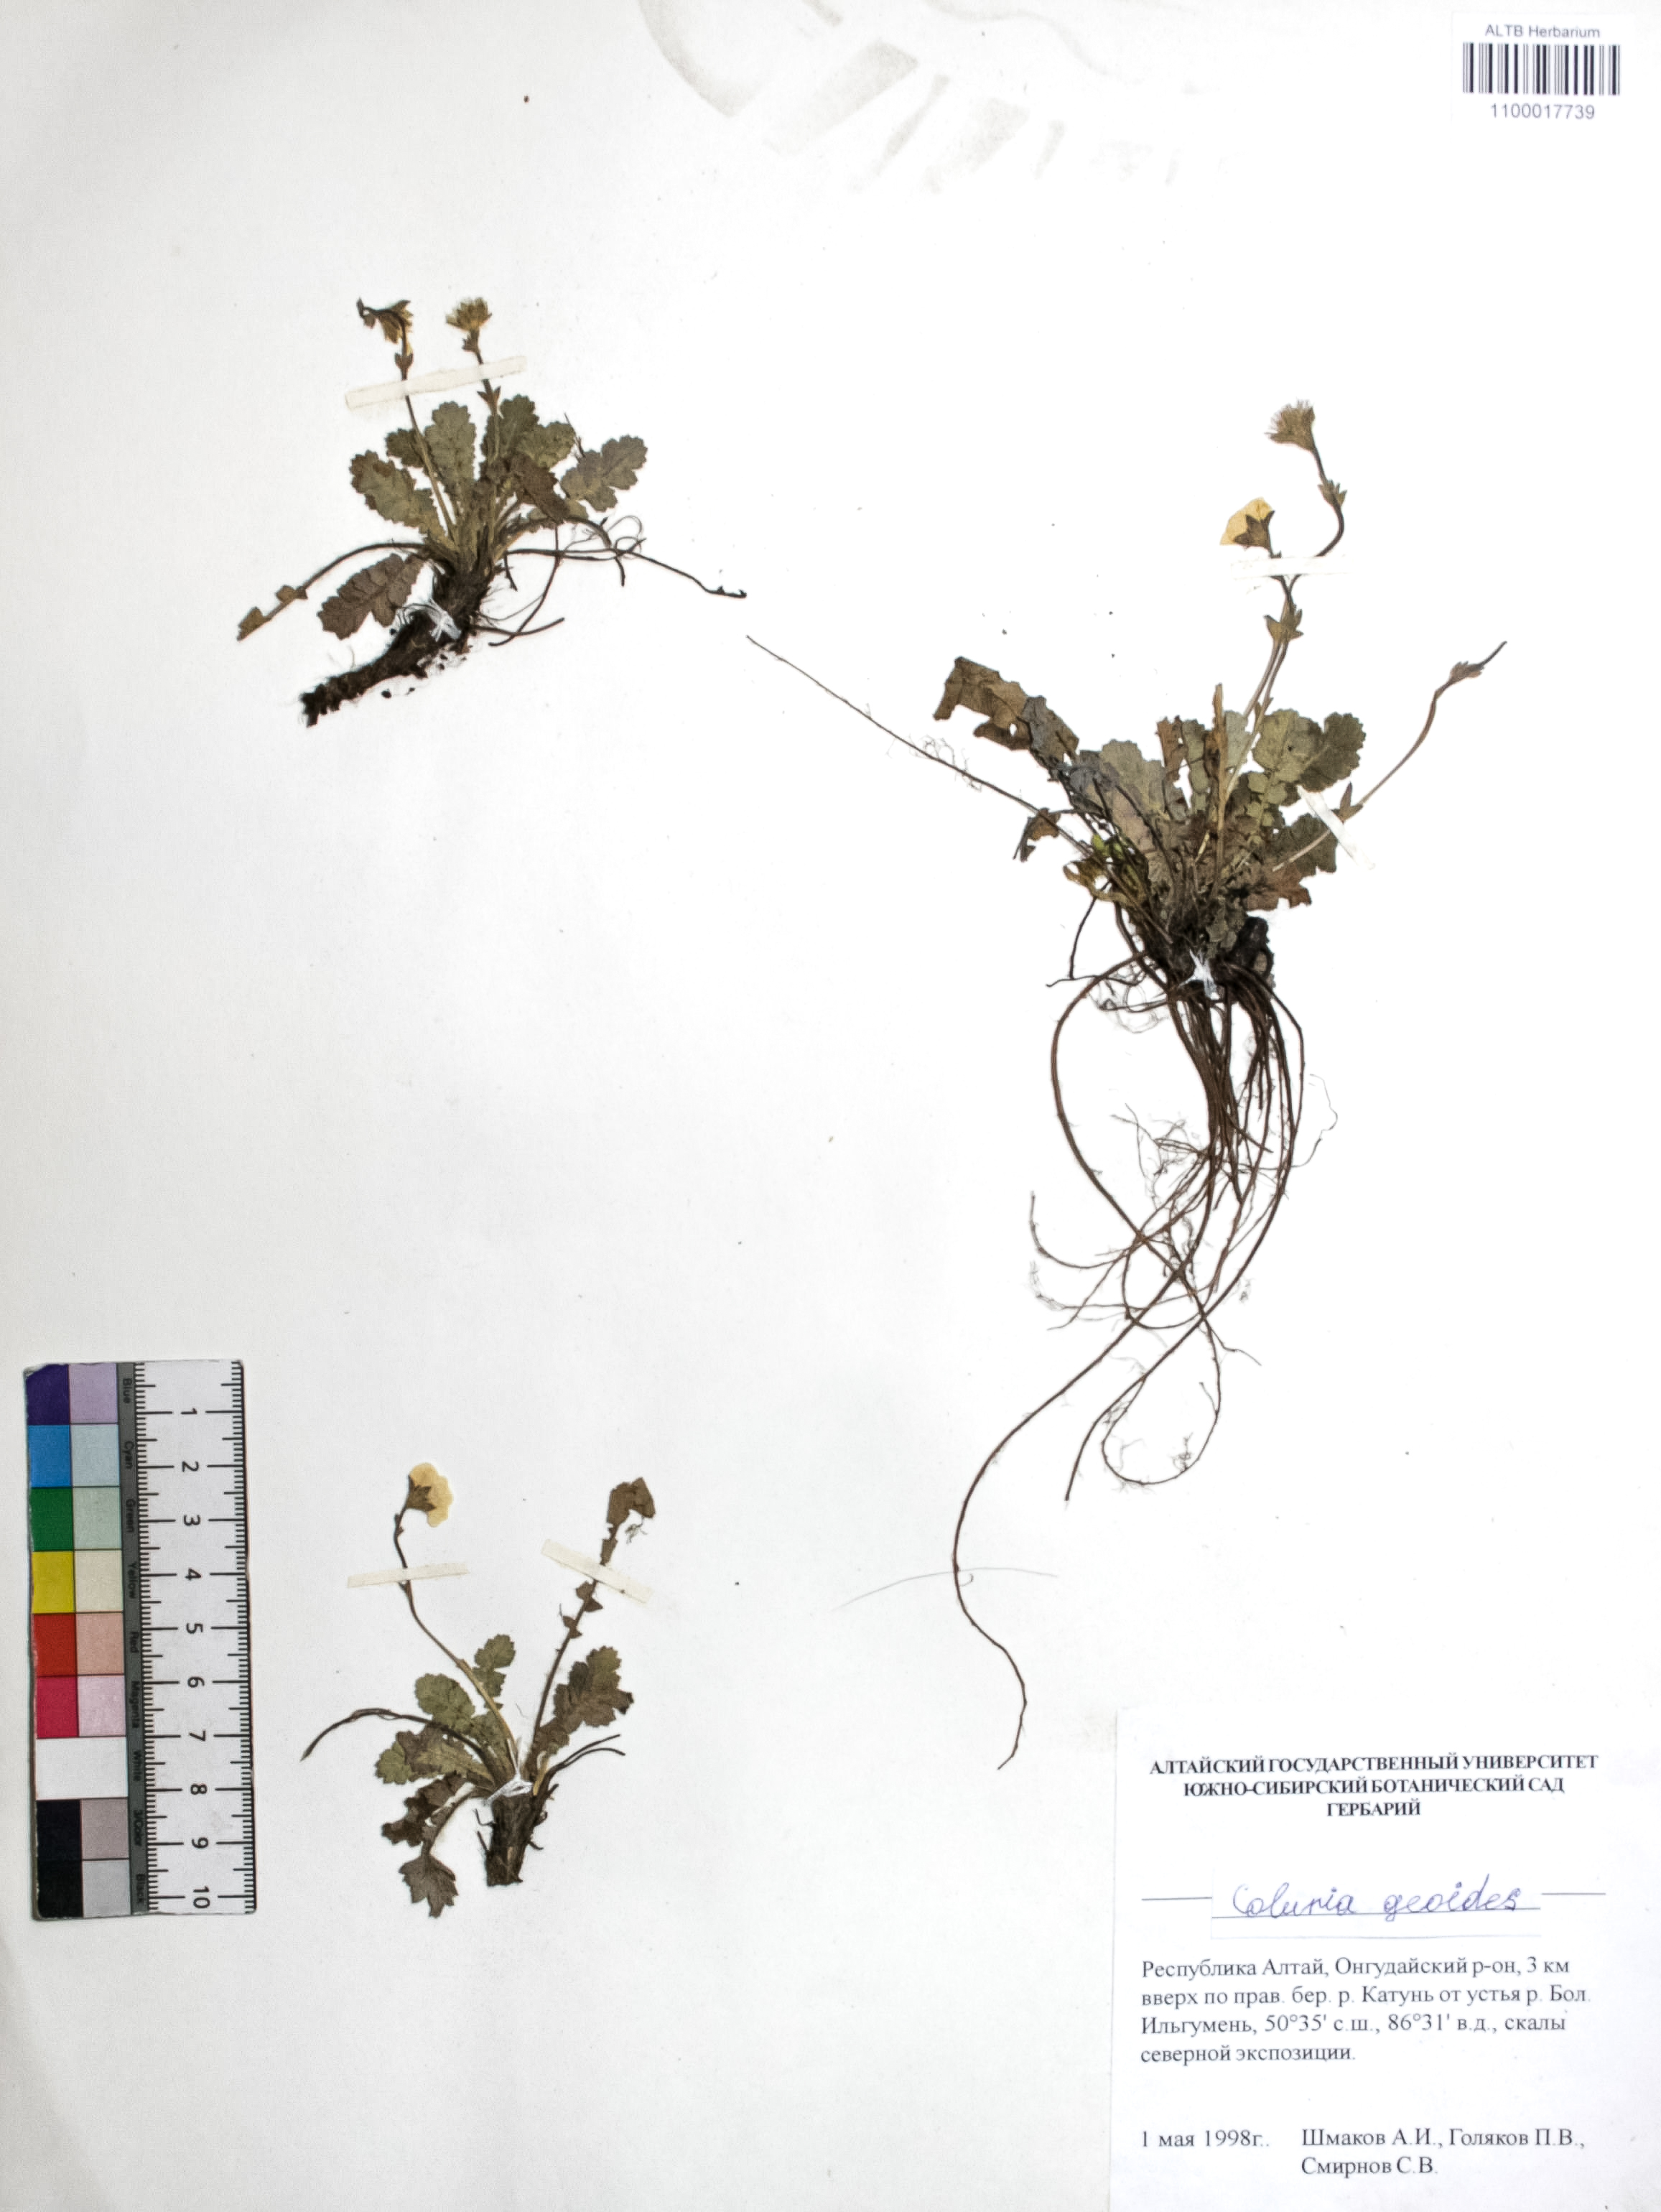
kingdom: Plantae
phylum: Tracheophyta
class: Magnoliopsida
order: Rosales
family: Rosaceae
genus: Geum
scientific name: Geum geoides
